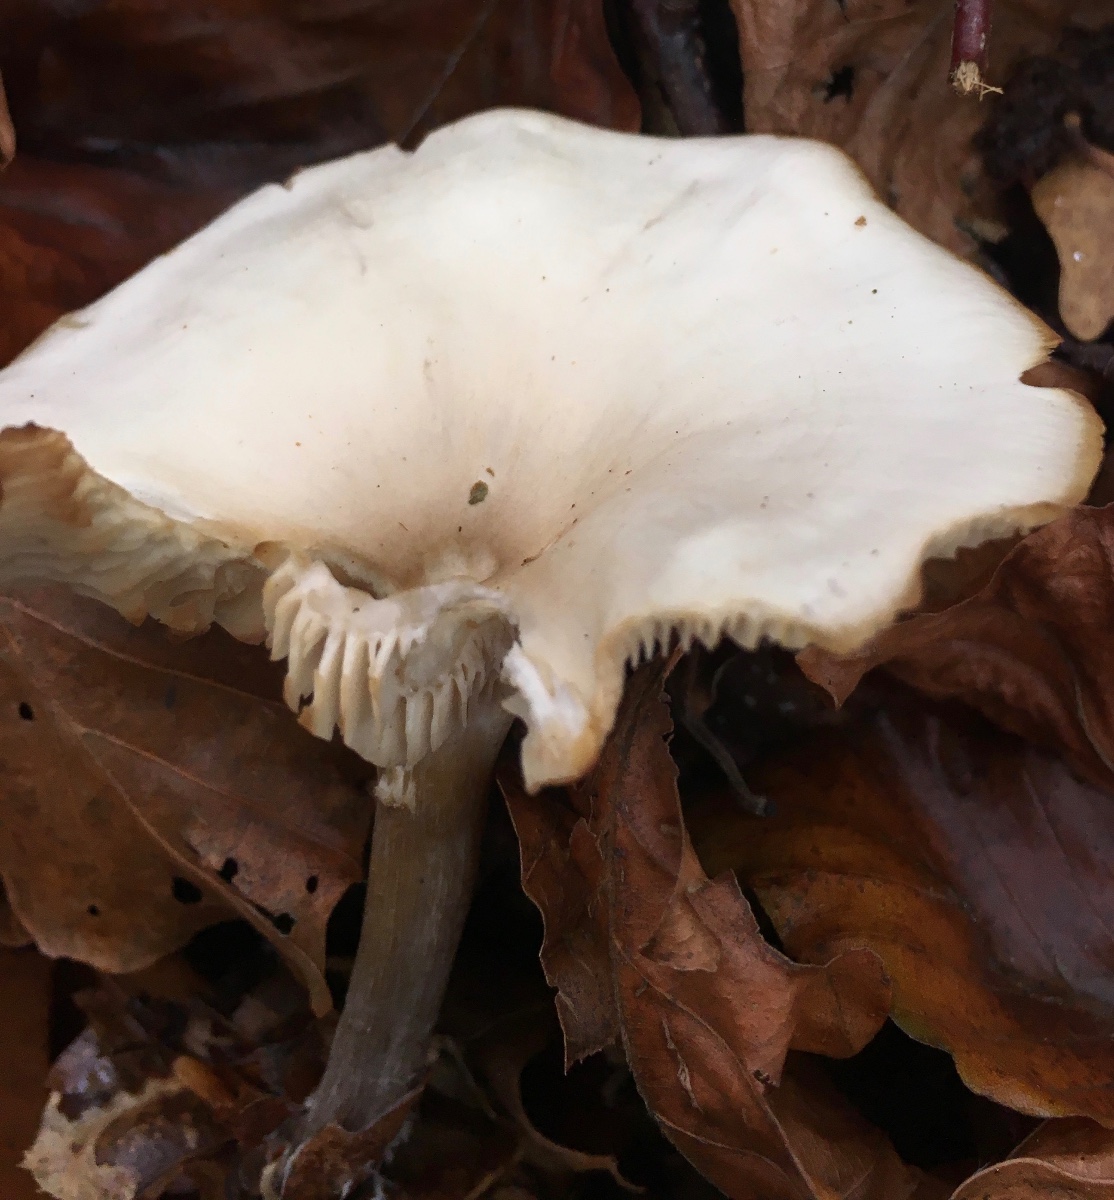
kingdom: Fungi
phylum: Basidiomycota
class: Agaricomycetes
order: Agaricales
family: Tricholomataceae
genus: Clitocybe
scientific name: Clitocybe metachroa
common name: grå tragthat
